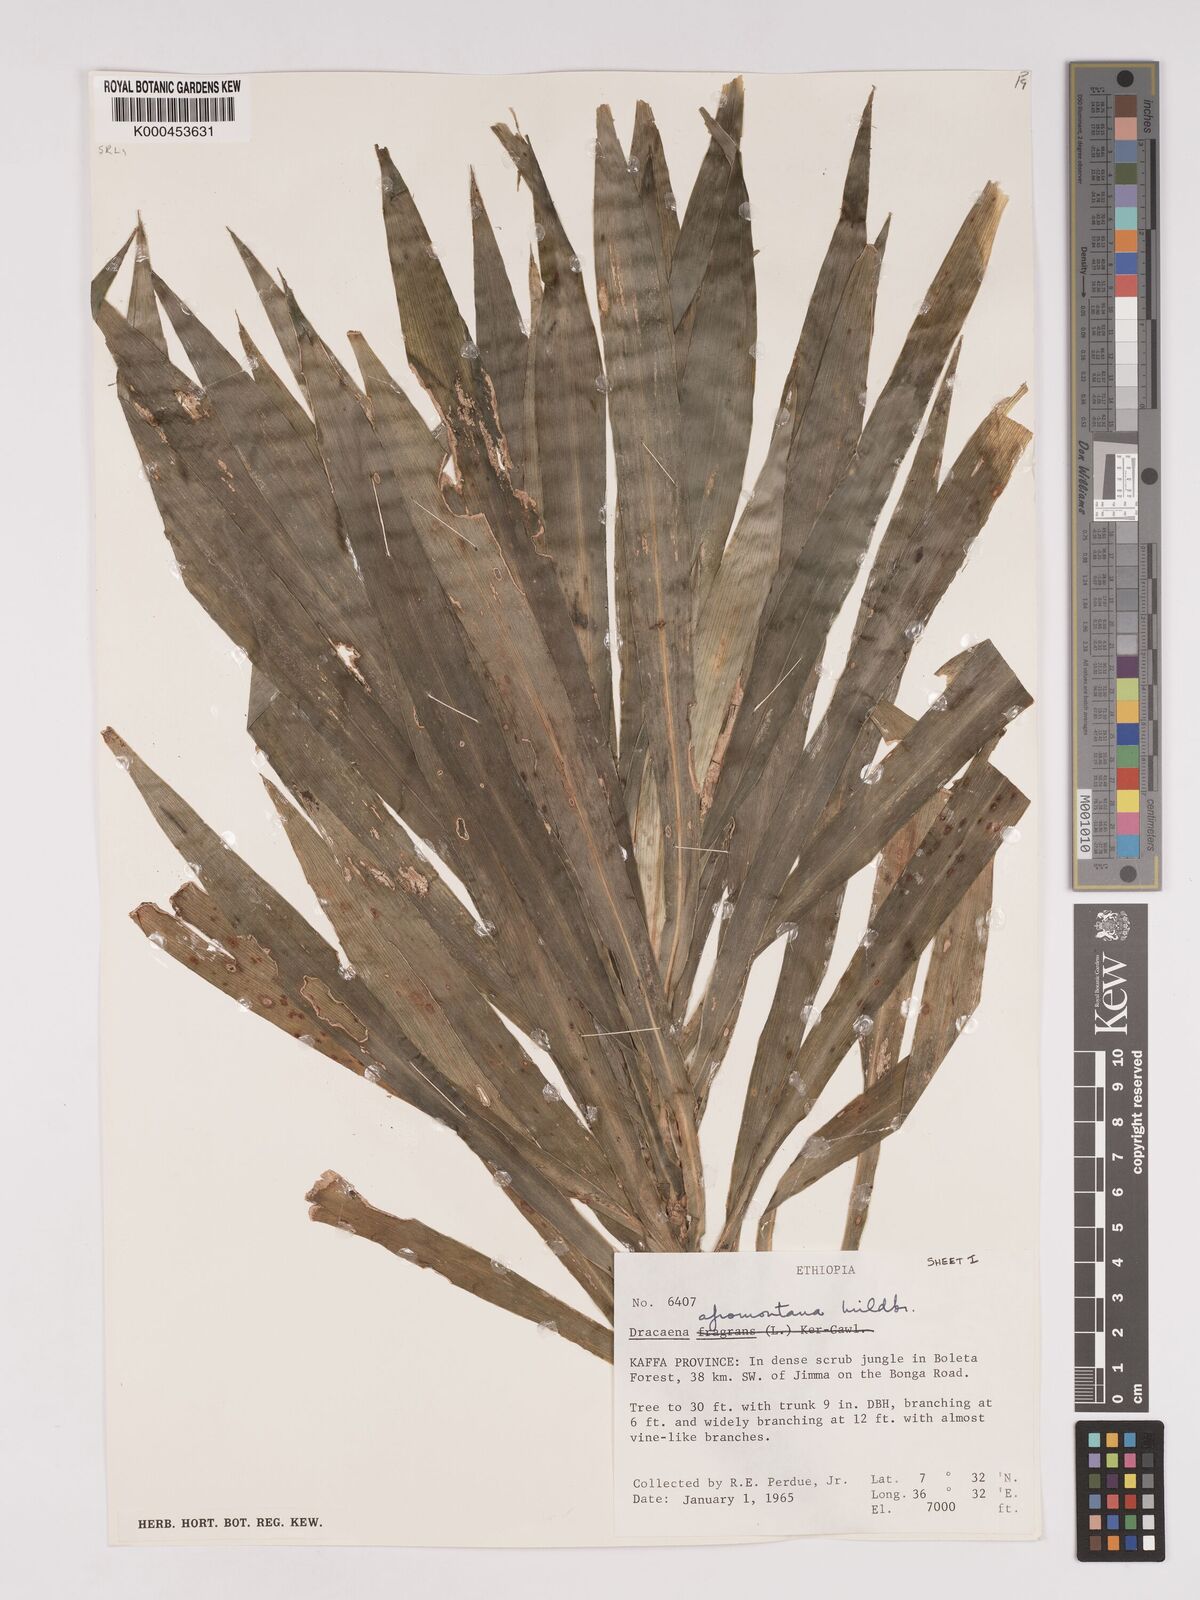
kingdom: Plantae
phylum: Tracheophyta
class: Liliopsida
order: Asparagales
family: Asparagaceae
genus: Dracaena
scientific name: Dracaena afromontana
